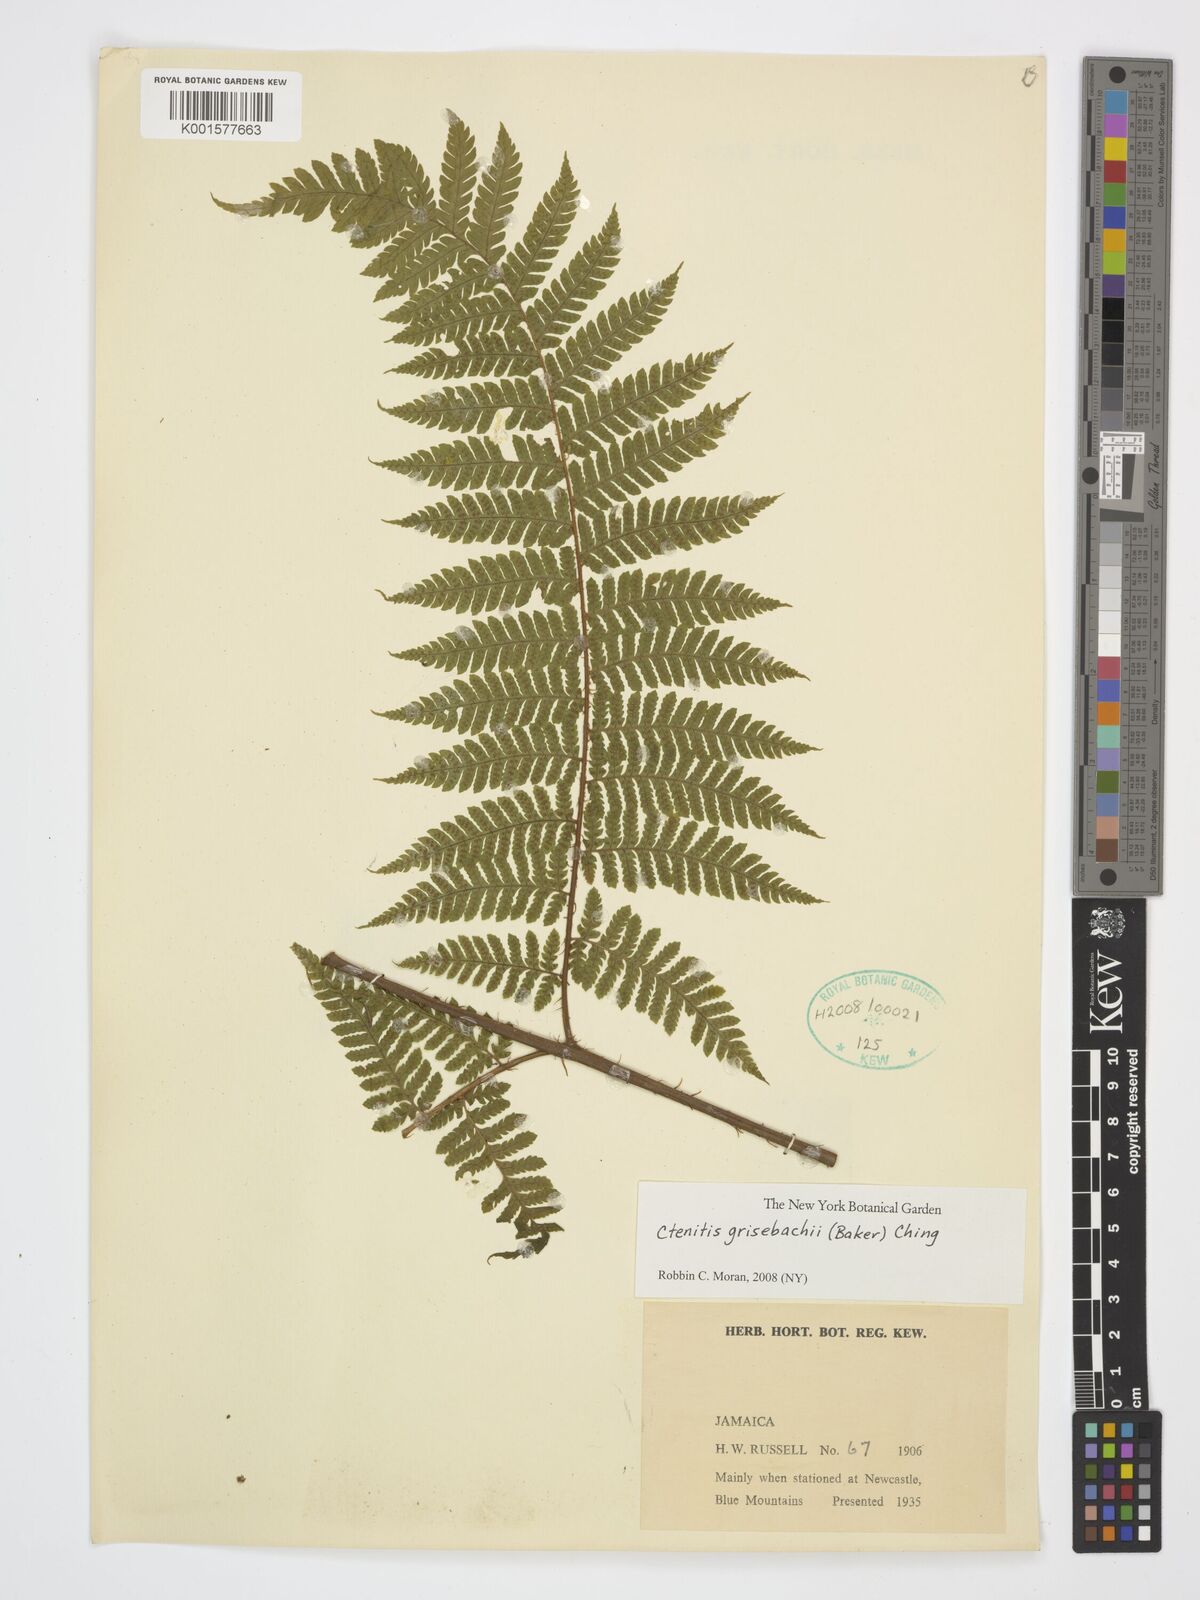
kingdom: Plantae
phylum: Tracheophyta
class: Polypodiopsida
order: Polypodiales
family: Dryopteridaceae
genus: Ctenitis
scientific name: Ctenitis grisebachii
